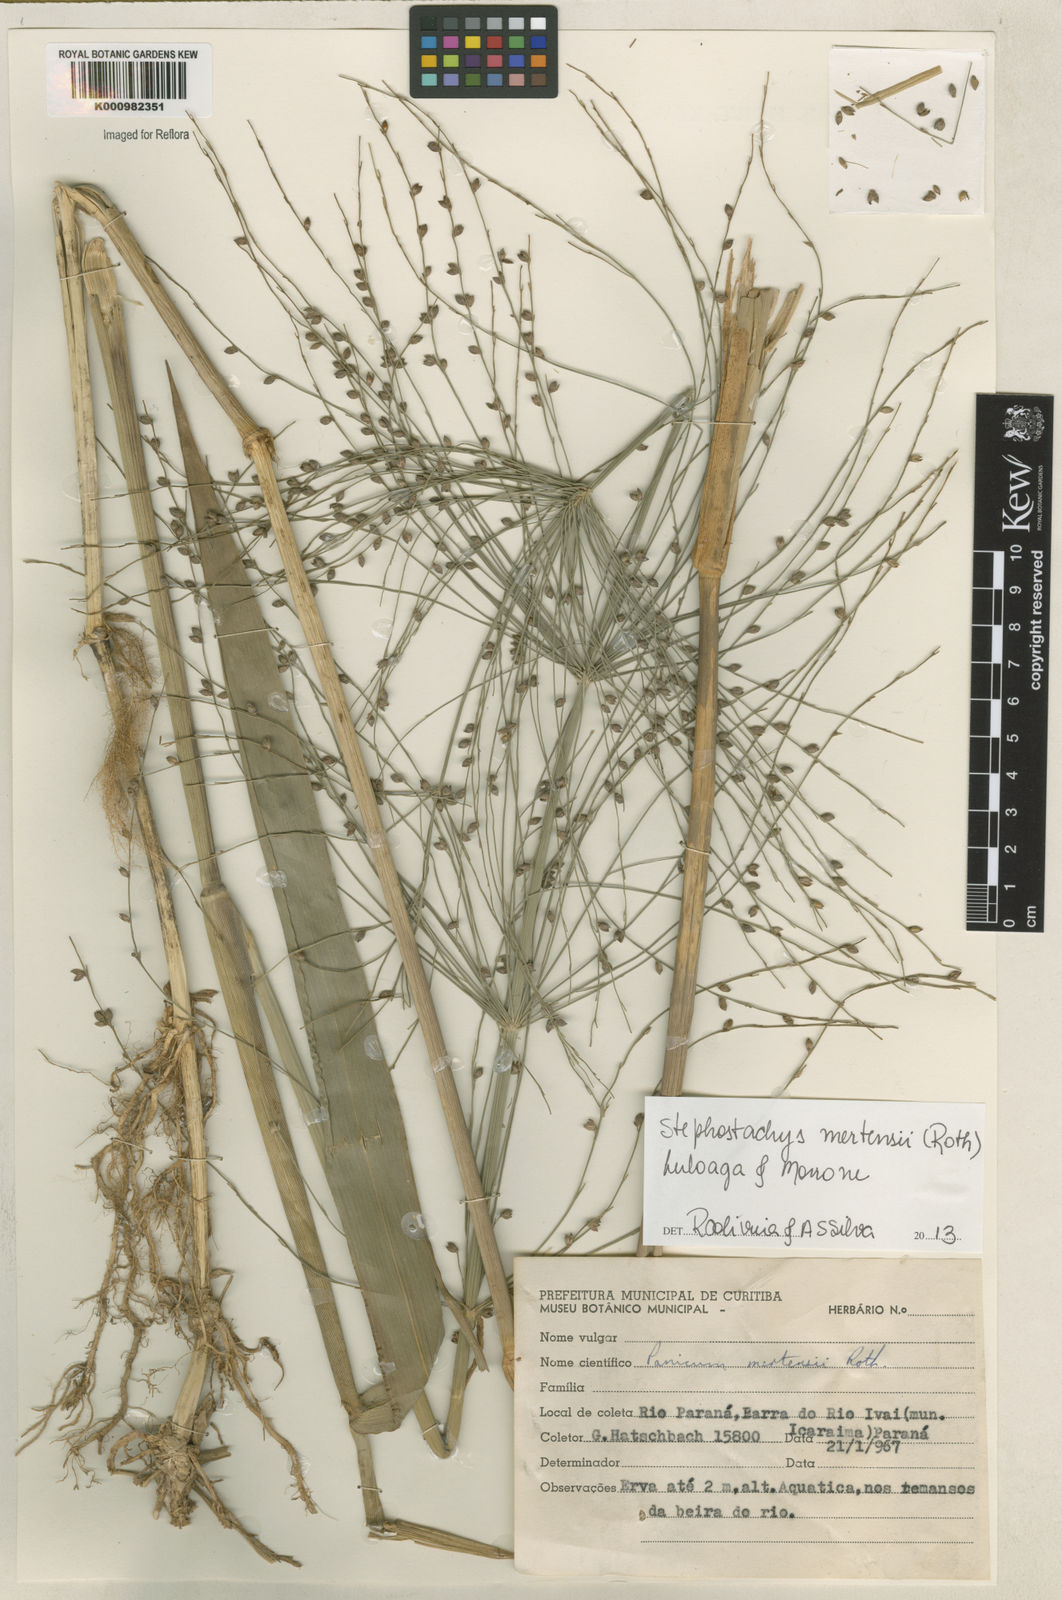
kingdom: Plantae
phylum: Tracheophyta
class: Liliopsida
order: Poales
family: Poaceae
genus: Stephostachys
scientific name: Stephostachys mertensii
